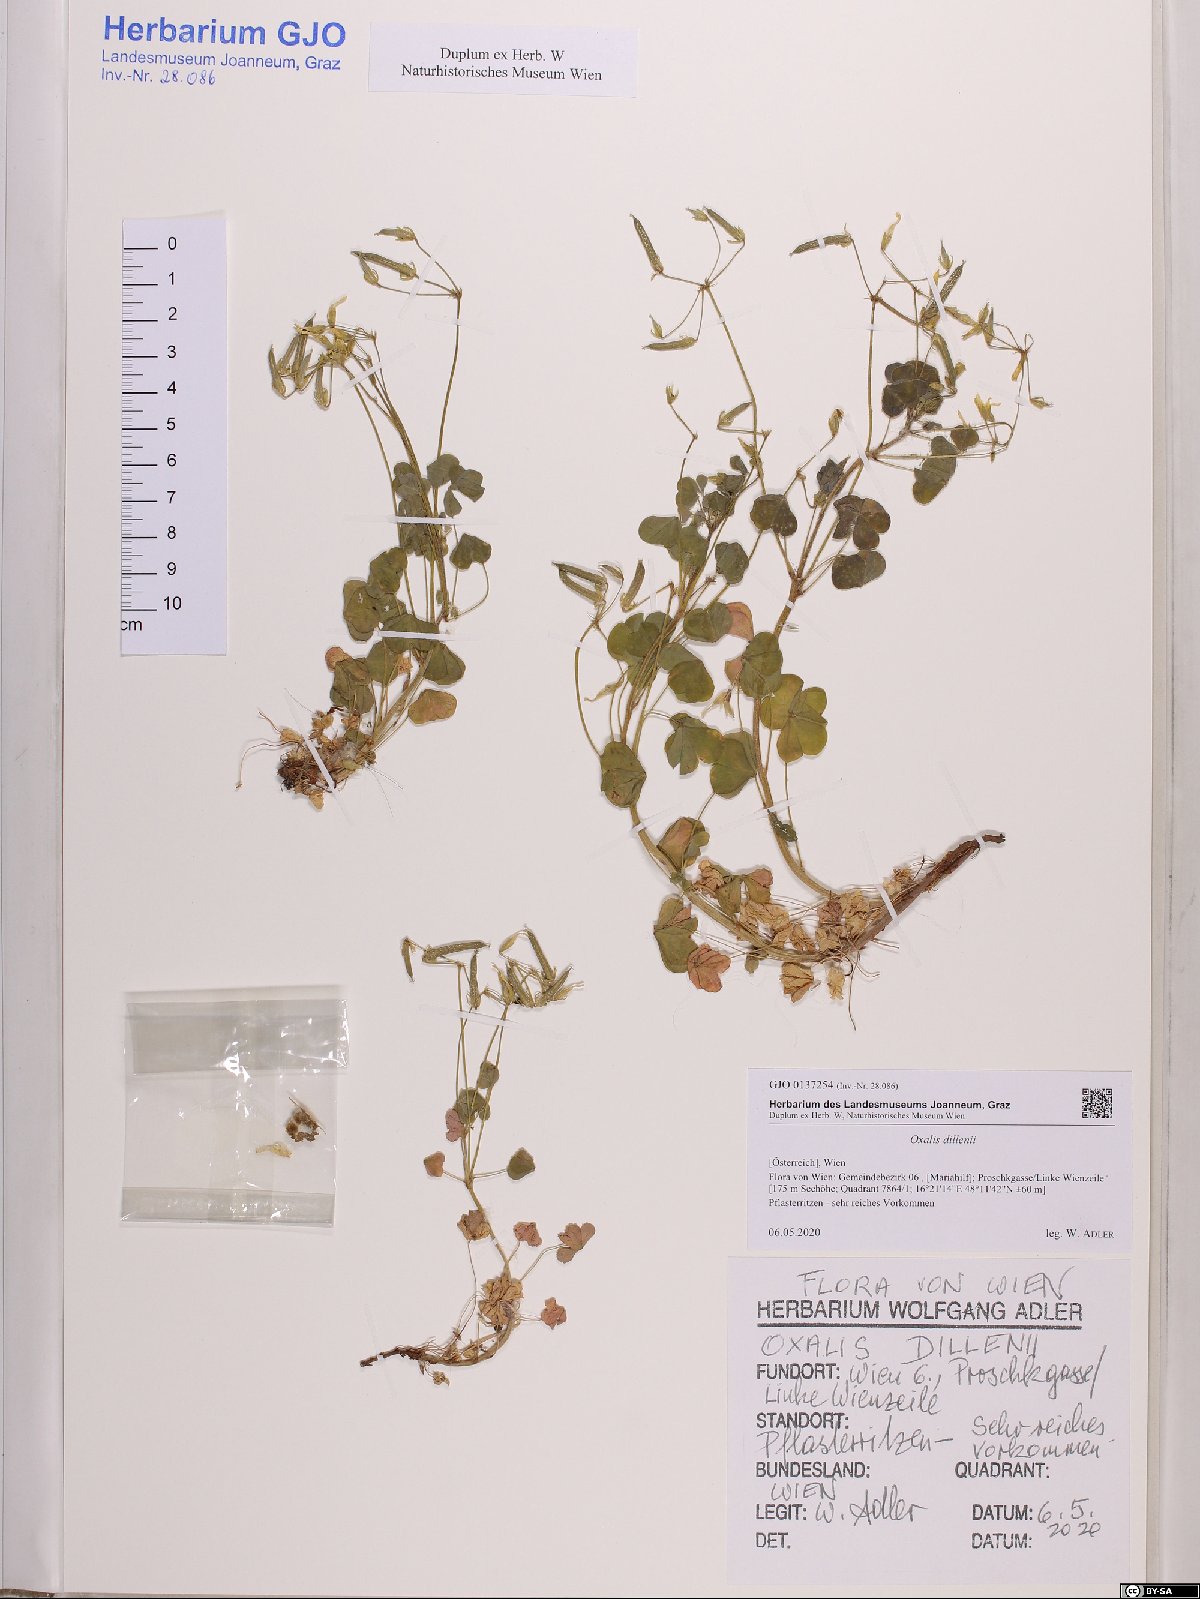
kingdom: Plantae
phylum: Tracheophyta
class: Magnoliopsida
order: Oxalidales
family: Oxalidaceae
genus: Oxalis
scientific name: Oxalis dillenii
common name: Sussex yellow-sorrel
